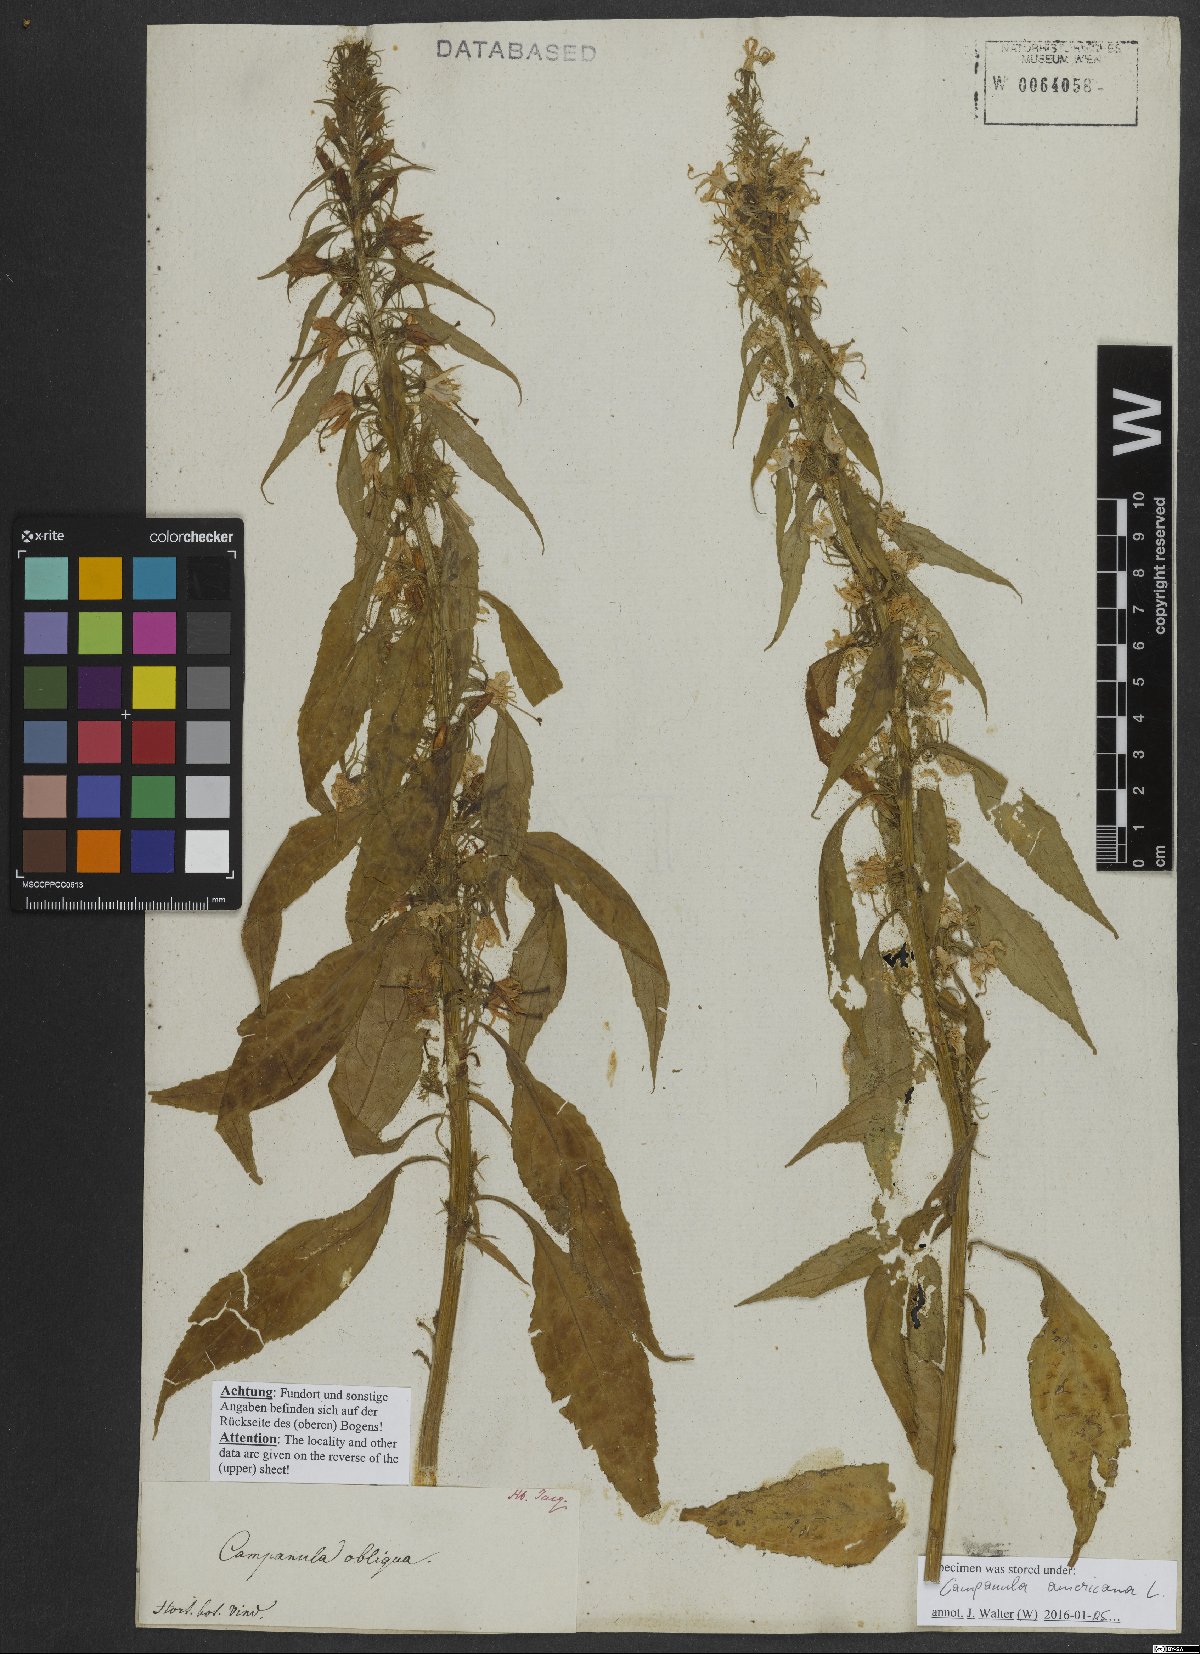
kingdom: Plantae
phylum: Tracheophyta
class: Magnoliopsida
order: Asterales
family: Campanulaceae
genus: Campanulastrum
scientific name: Campanulastrum americanum
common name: American bellflower
